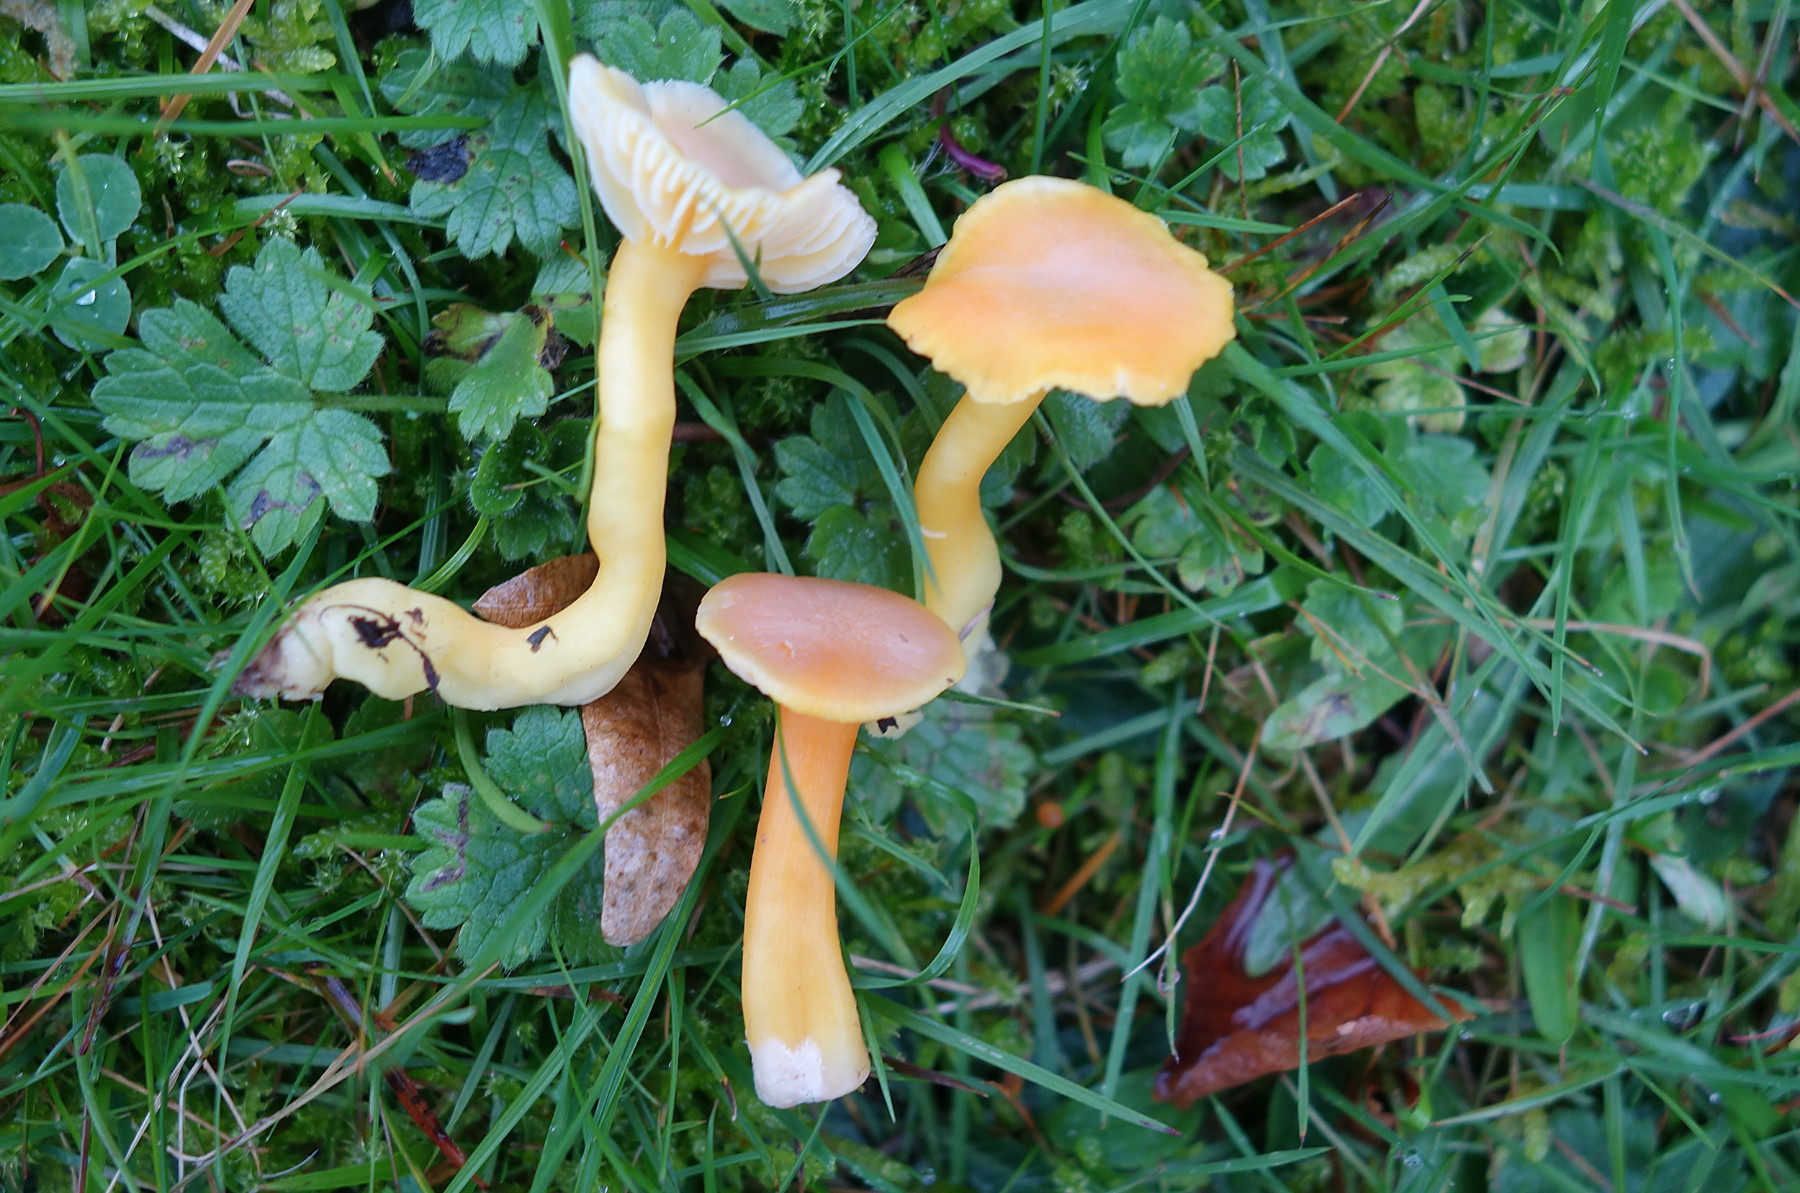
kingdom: Fungi
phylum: Basidiomycota
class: Agaricomycetes
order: Agaricales
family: Hygrophoraceae
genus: Hygrocybe
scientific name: Hygrocybe reidii
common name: honning-vokshat
